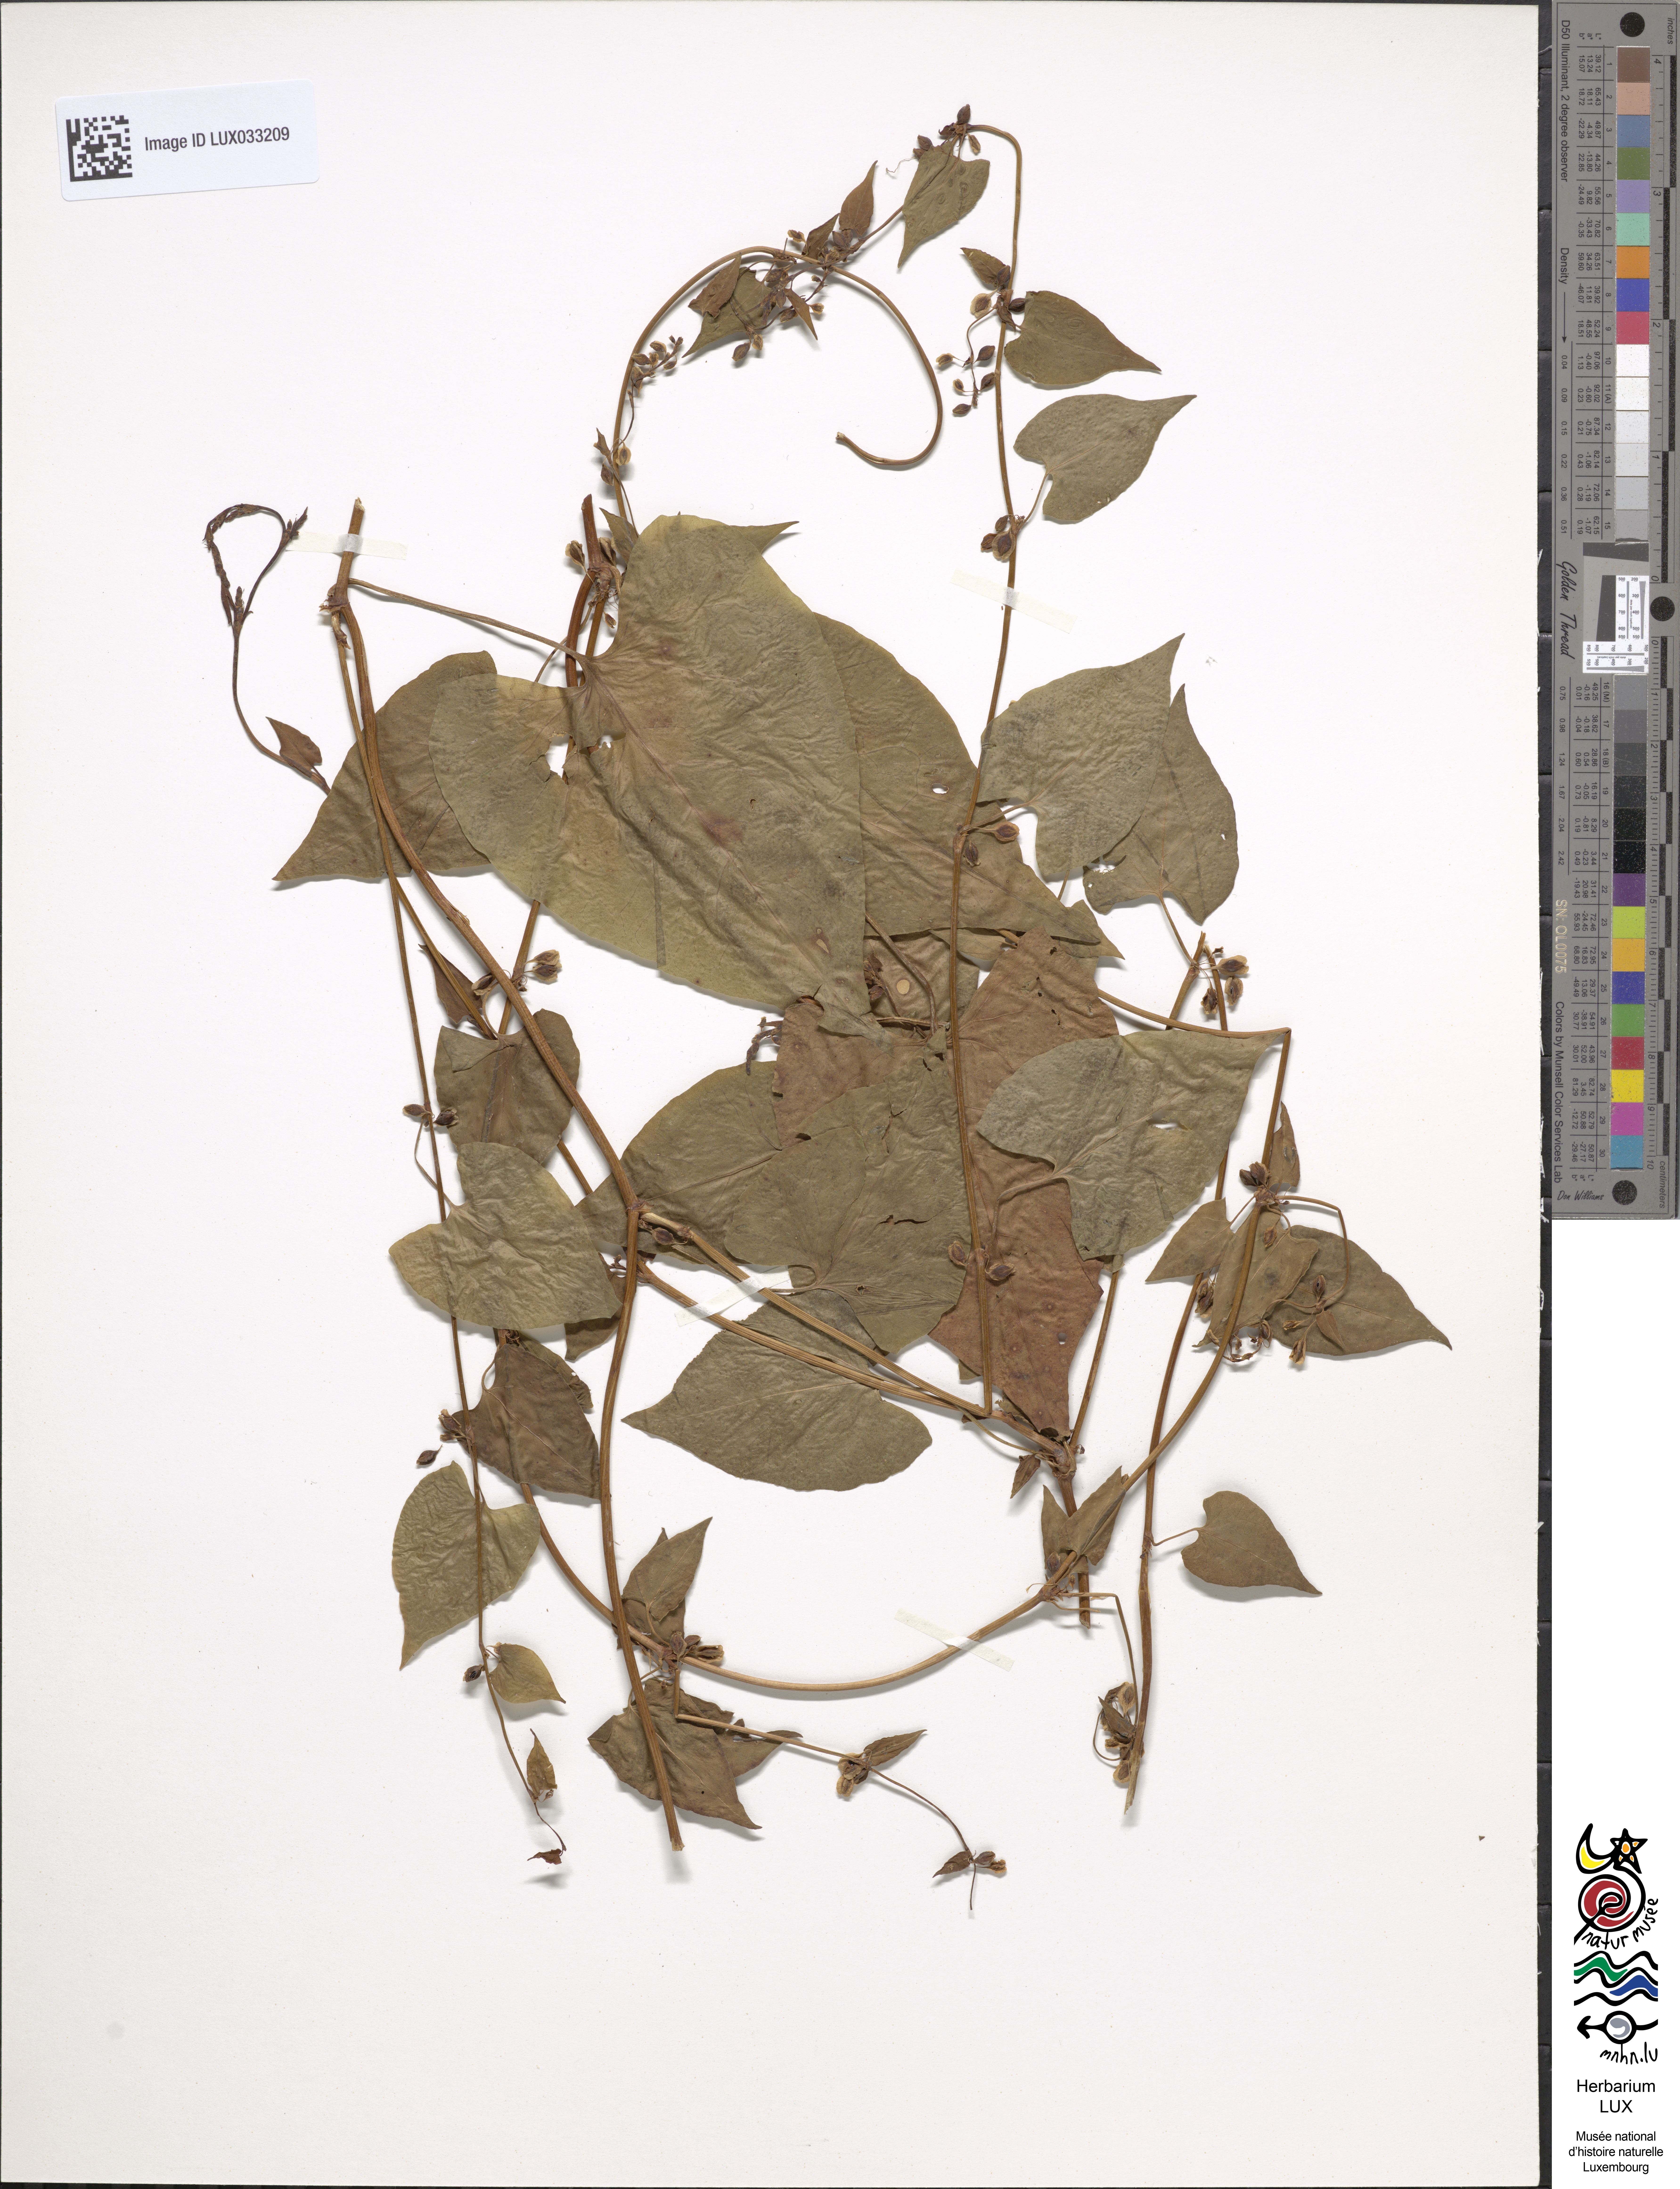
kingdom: Plantae
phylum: Tracheophyta
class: Magnoliopsida
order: Caryophyllales
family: Polygonaceae
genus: Fallopia
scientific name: Fallopia dumetorum
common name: Copse-bindweed
